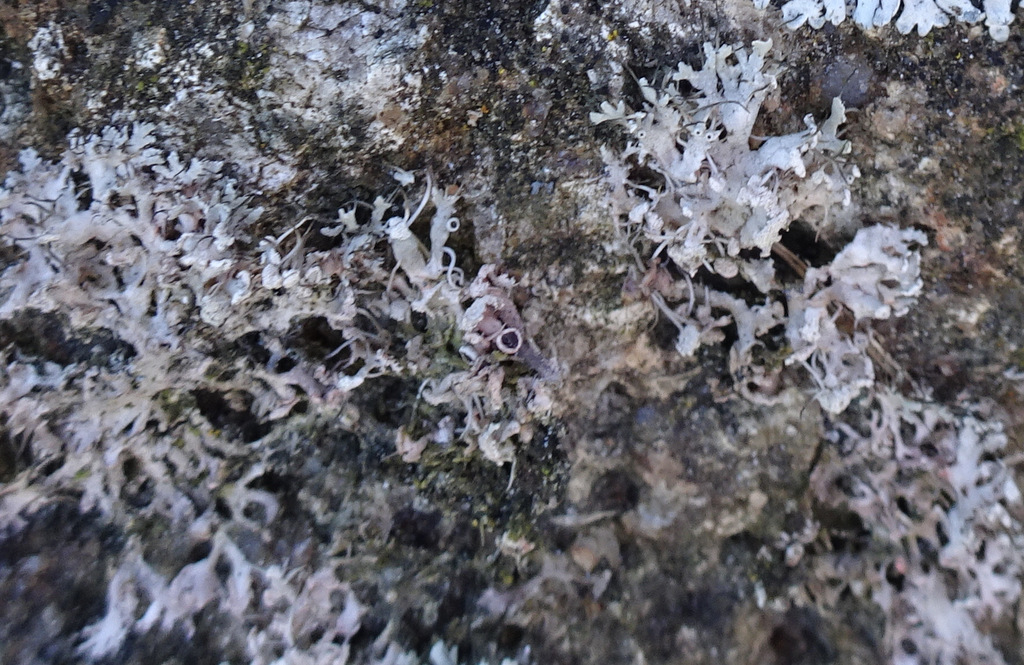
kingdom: Fungi
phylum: Ascomycota
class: Lecanoromycetes
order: Caliciales
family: Physciaceae
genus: Physcia
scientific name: Physcia tenella
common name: spæd rosetlav
